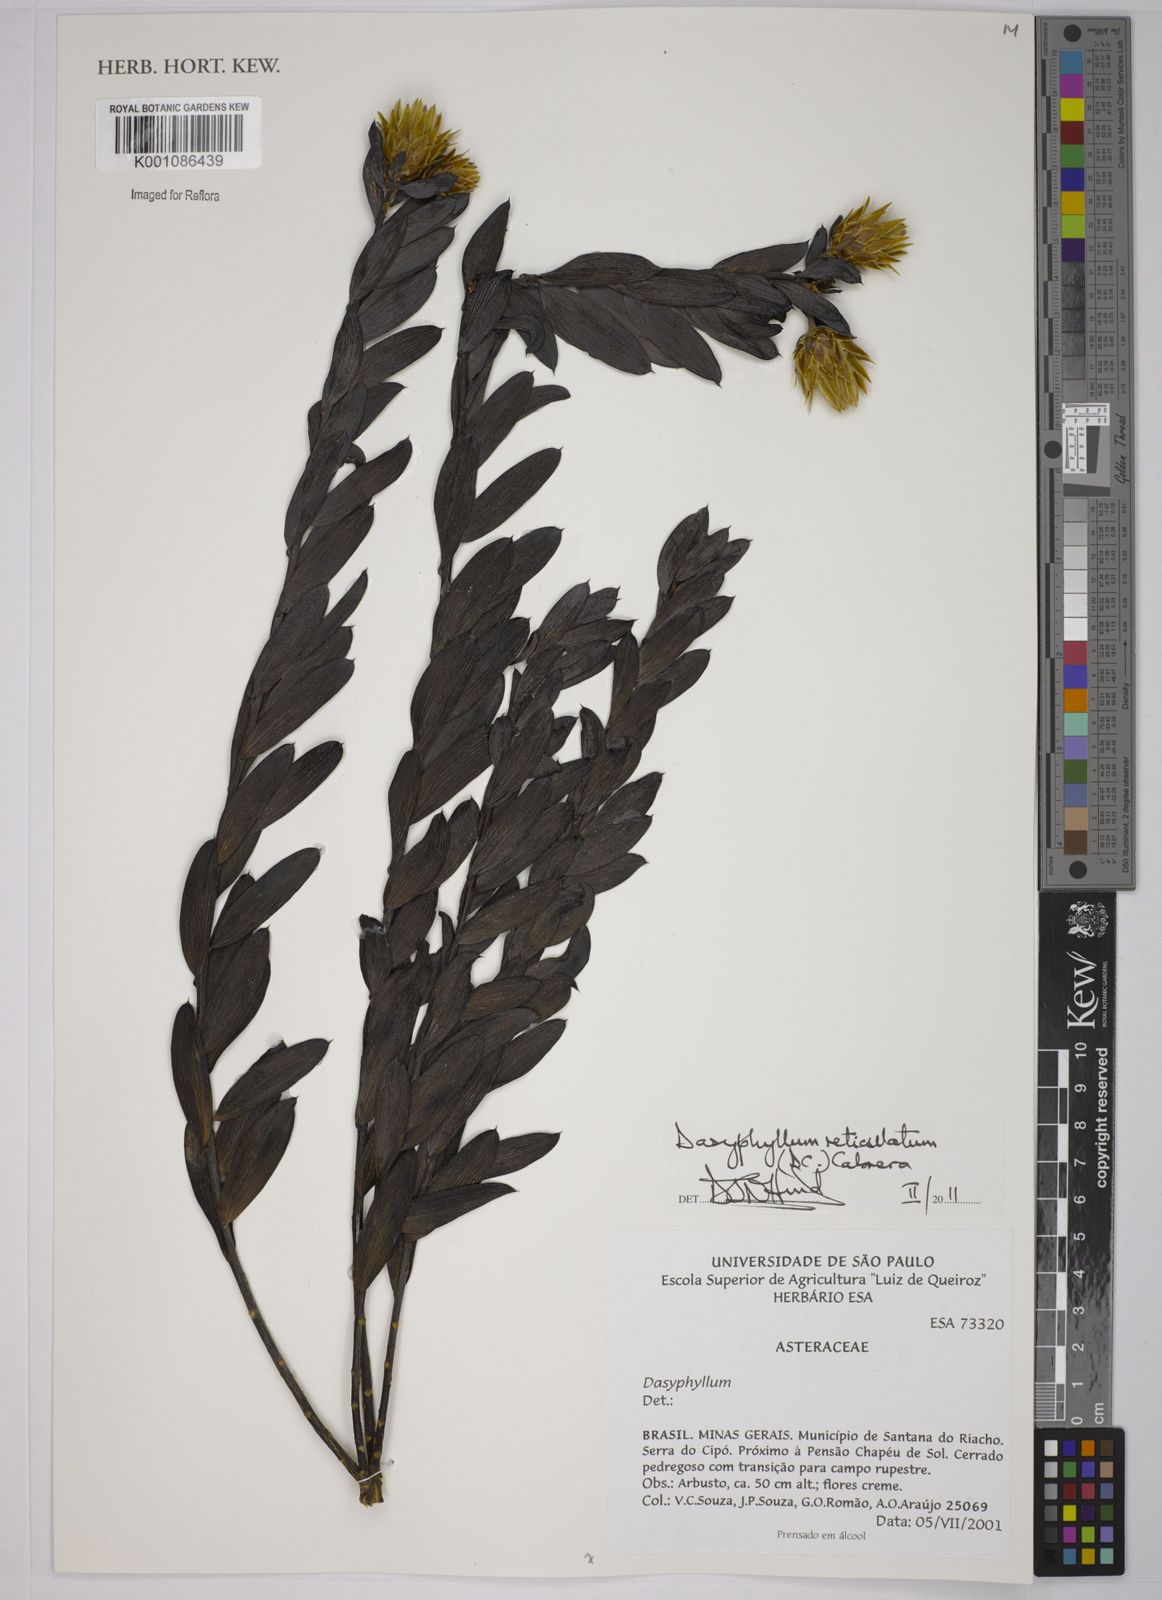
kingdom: Plantae
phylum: Tracheophyta
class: Magnoliopsida
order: Asterales
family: Asteraceae
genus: Dasyphyllum
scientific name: Dasyphyllum reticulatum
